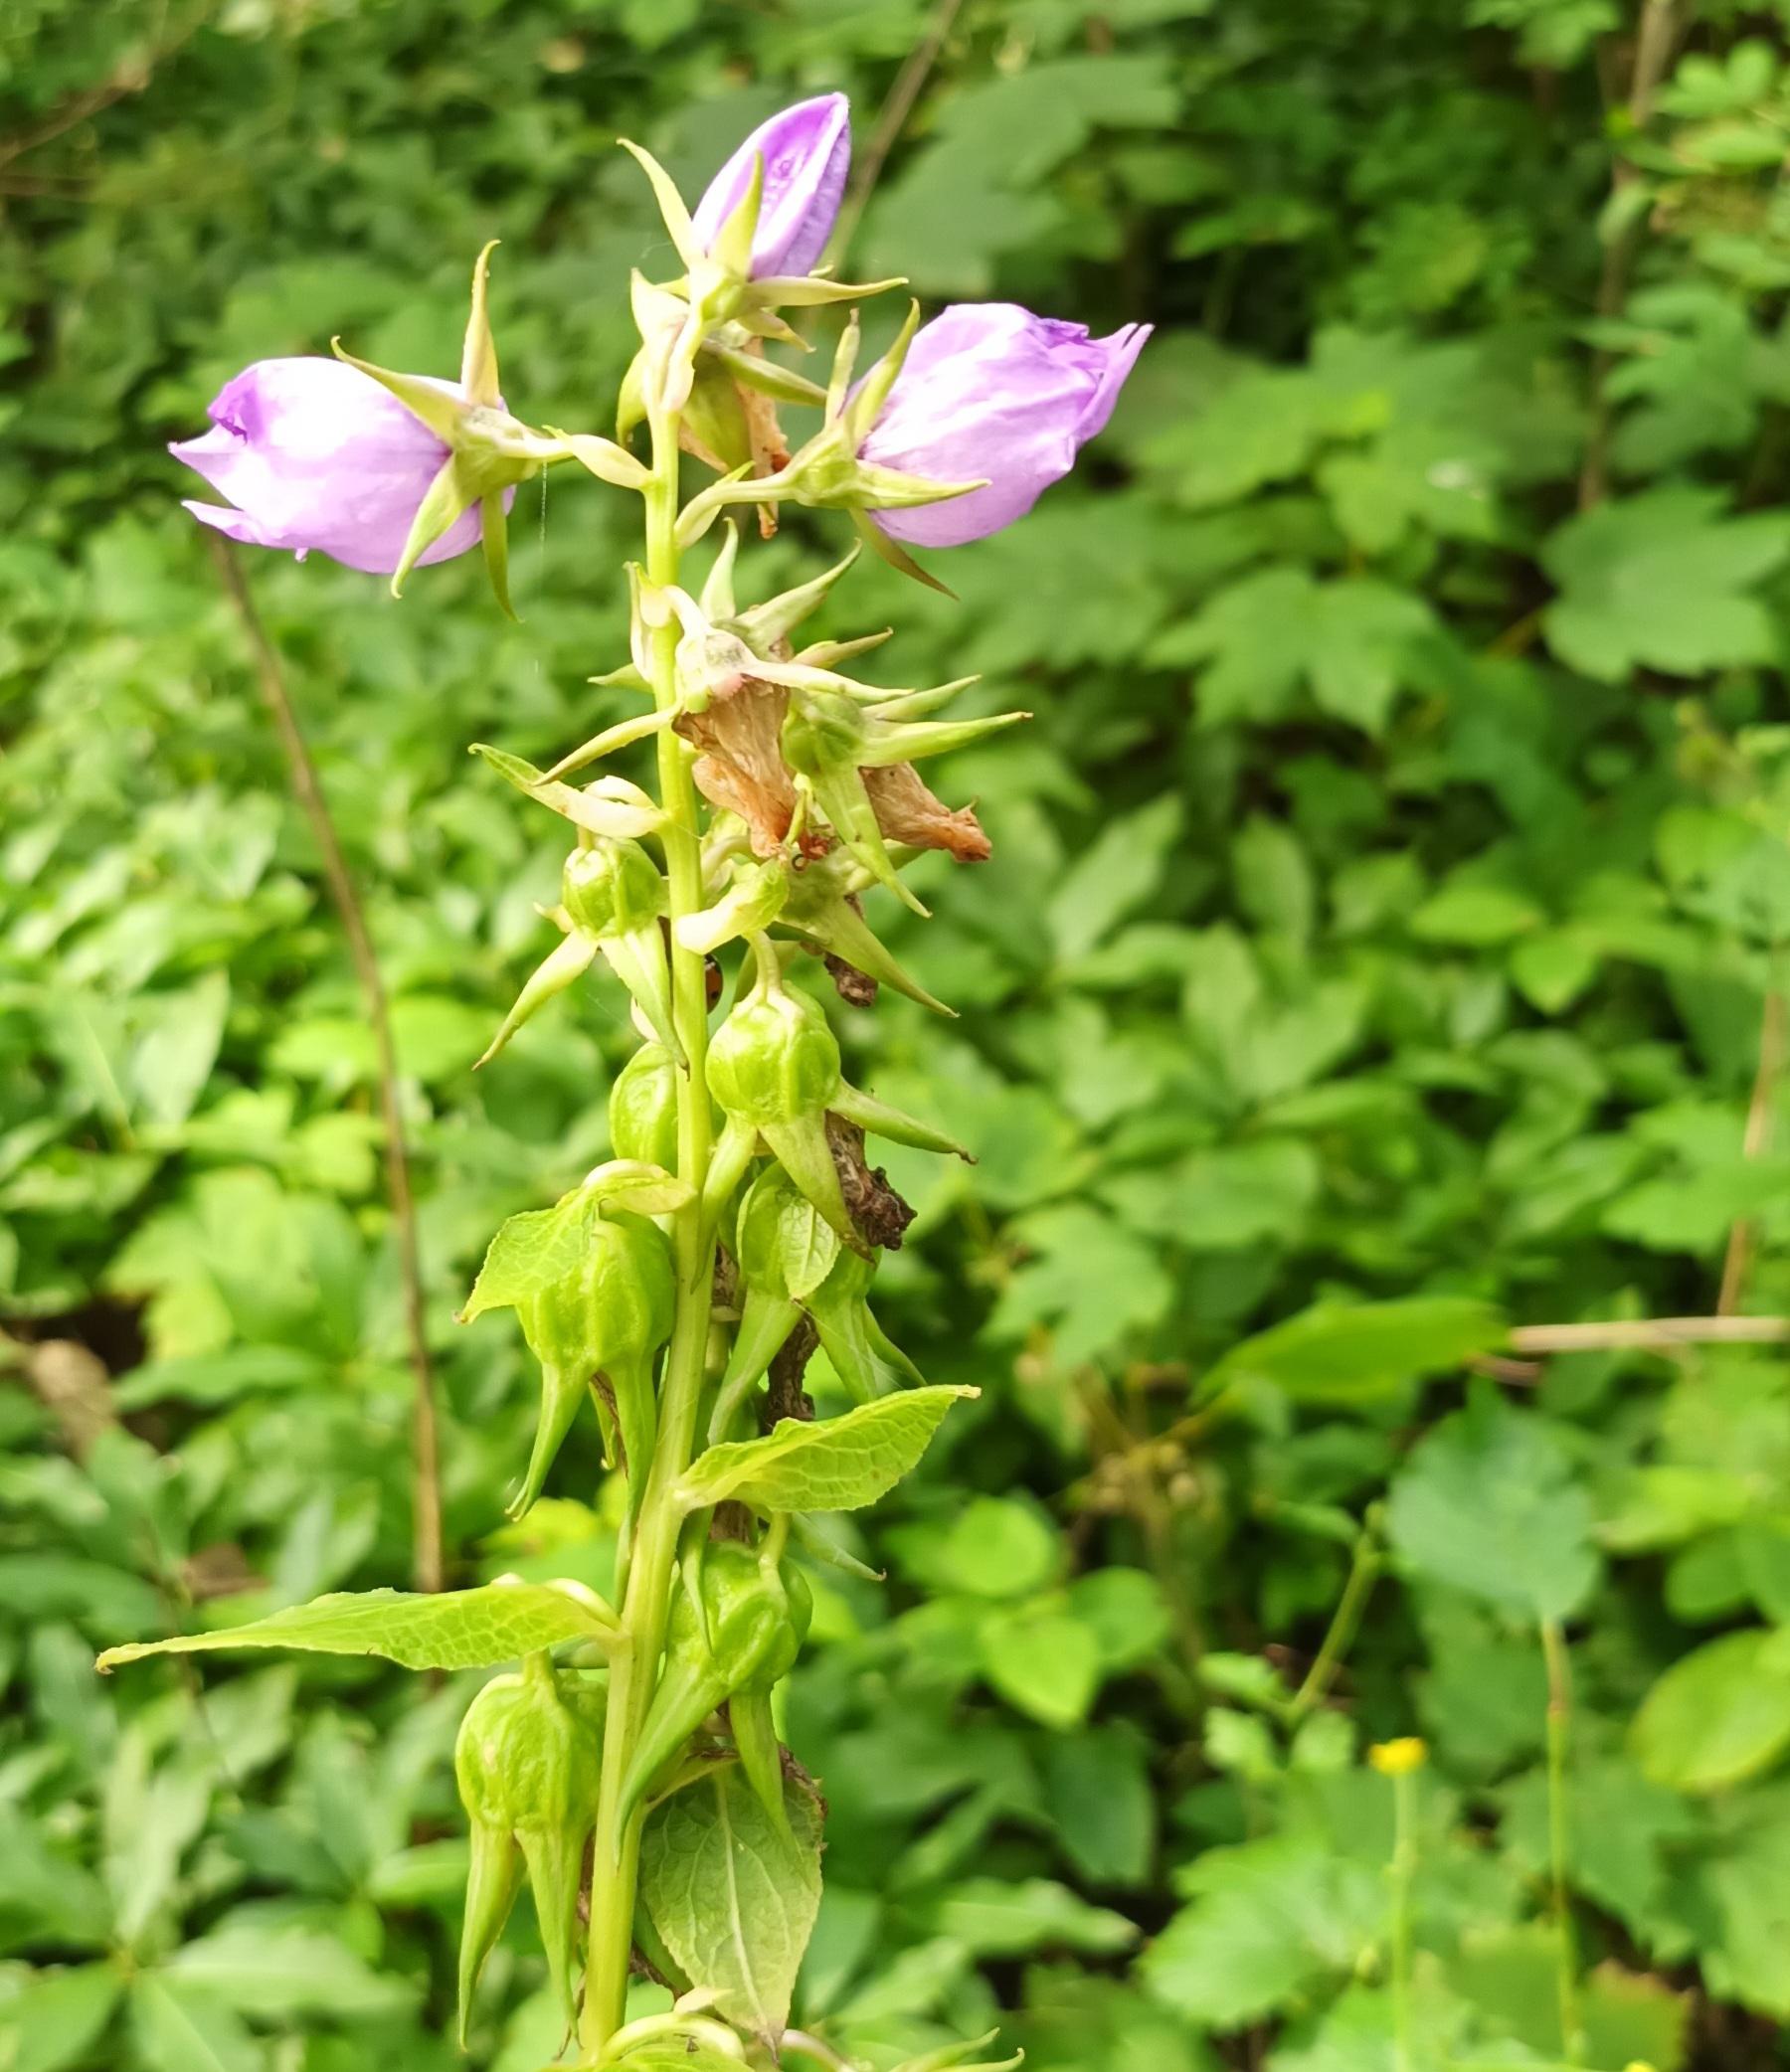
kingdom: Plantae
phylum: Tracheophyta
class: Magnoliopsida
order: Asterales
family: Campanulaceae
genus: Campanula
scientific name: Campanula latifolia
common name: Bredbladet klokke
